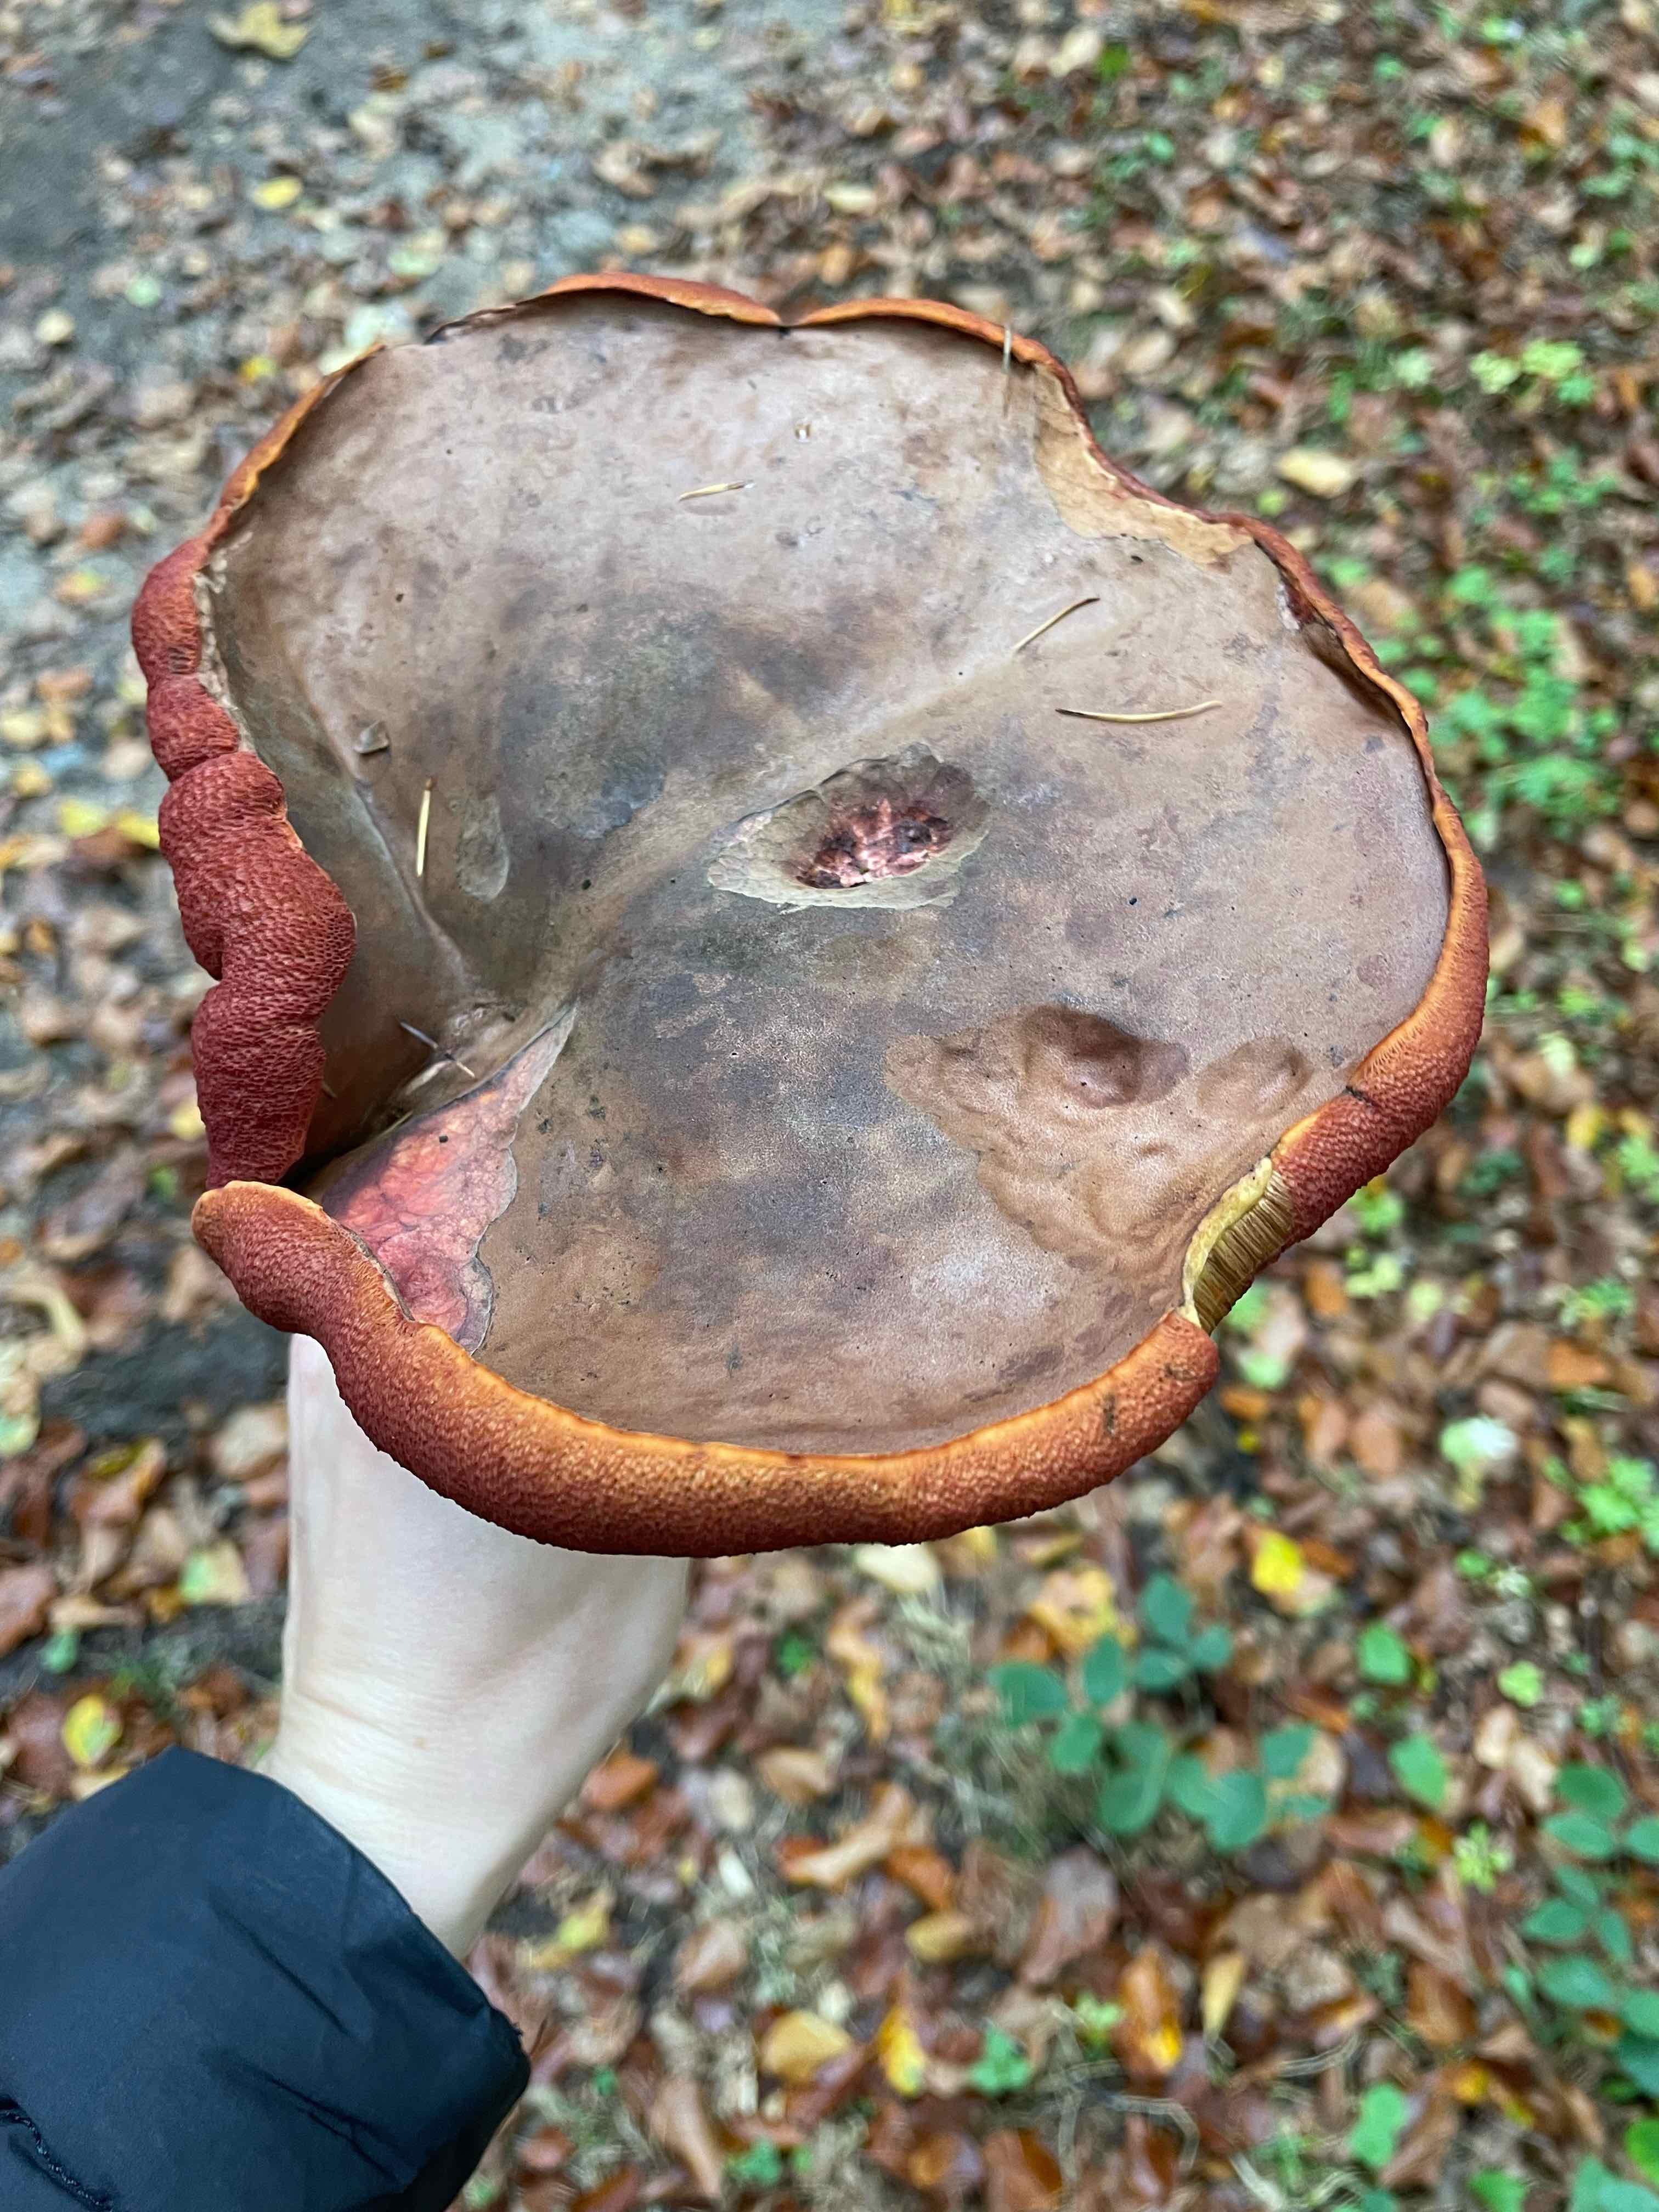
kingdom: Fungi
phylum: Basidiomycota
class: Agaricomycetes
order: Boletales
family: Boletaceae
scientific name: Boletaceae
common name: rørhatfamilien
